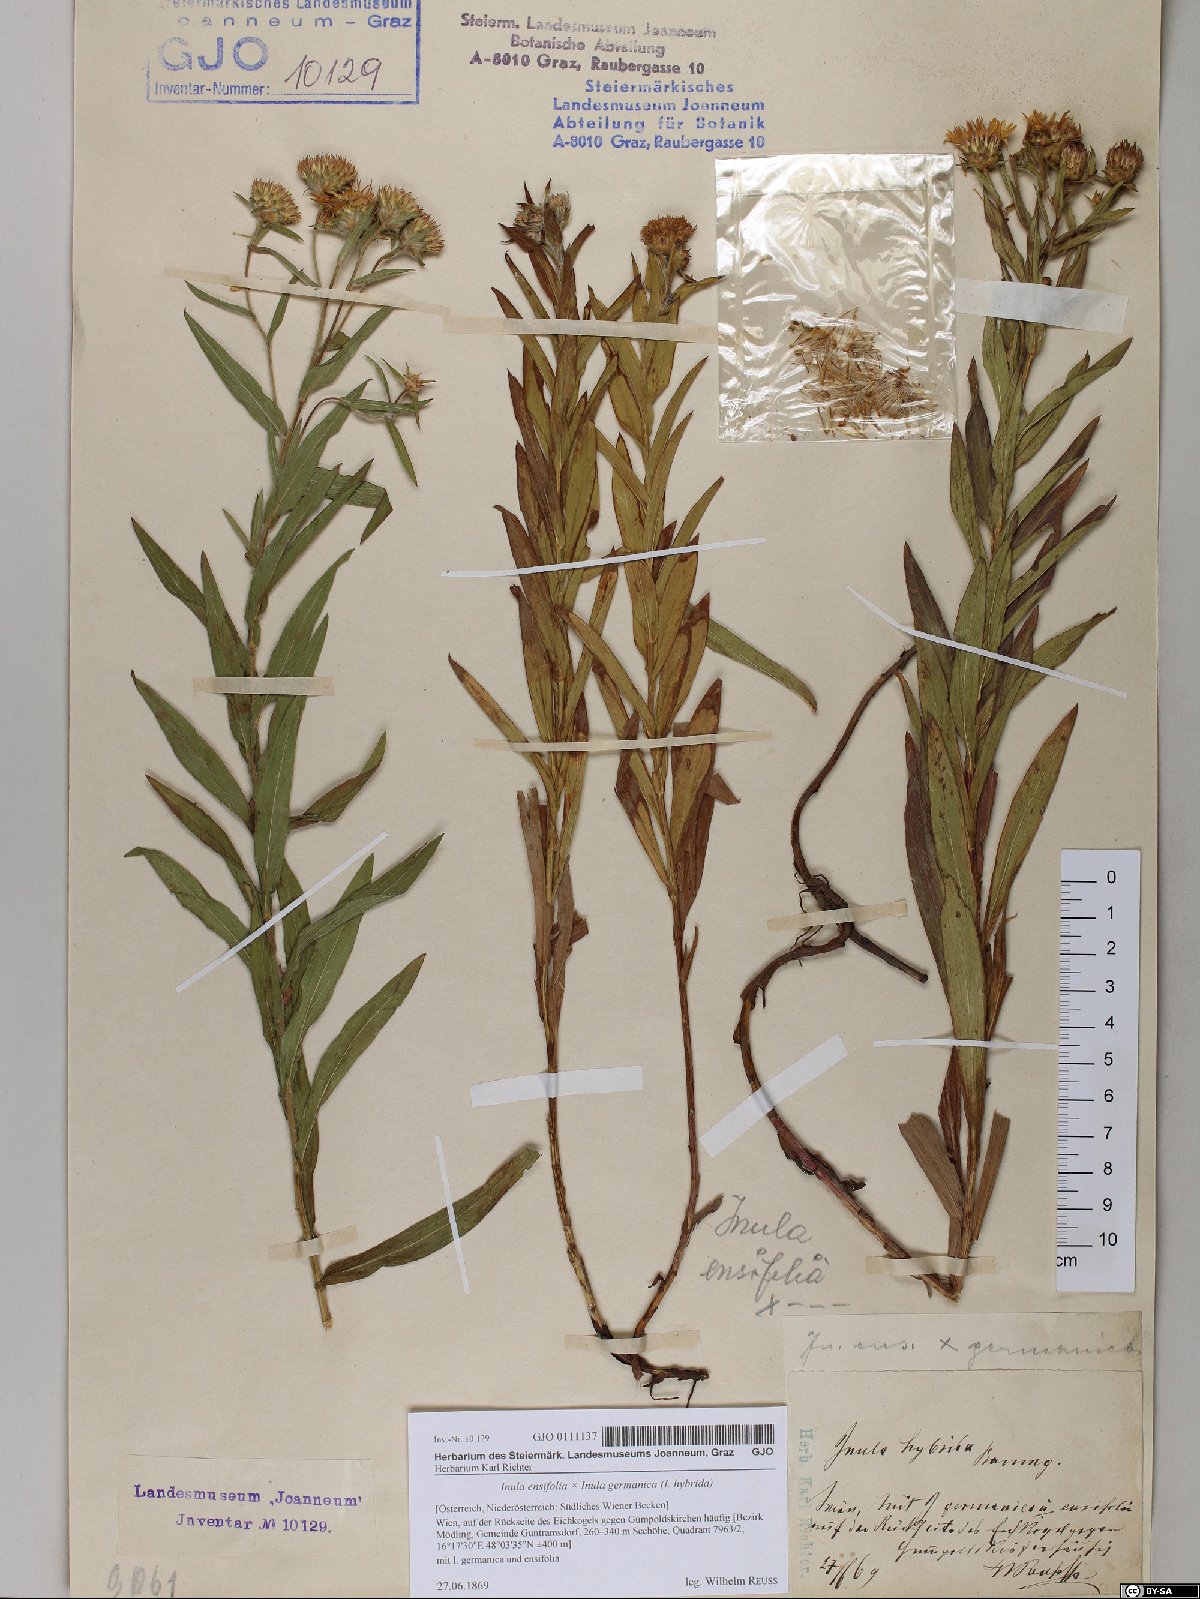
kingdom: Plantae
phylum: Tracheophyta
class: Magnoliopsida
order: Asterales
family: Asteraceae
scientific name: Asteraceae
